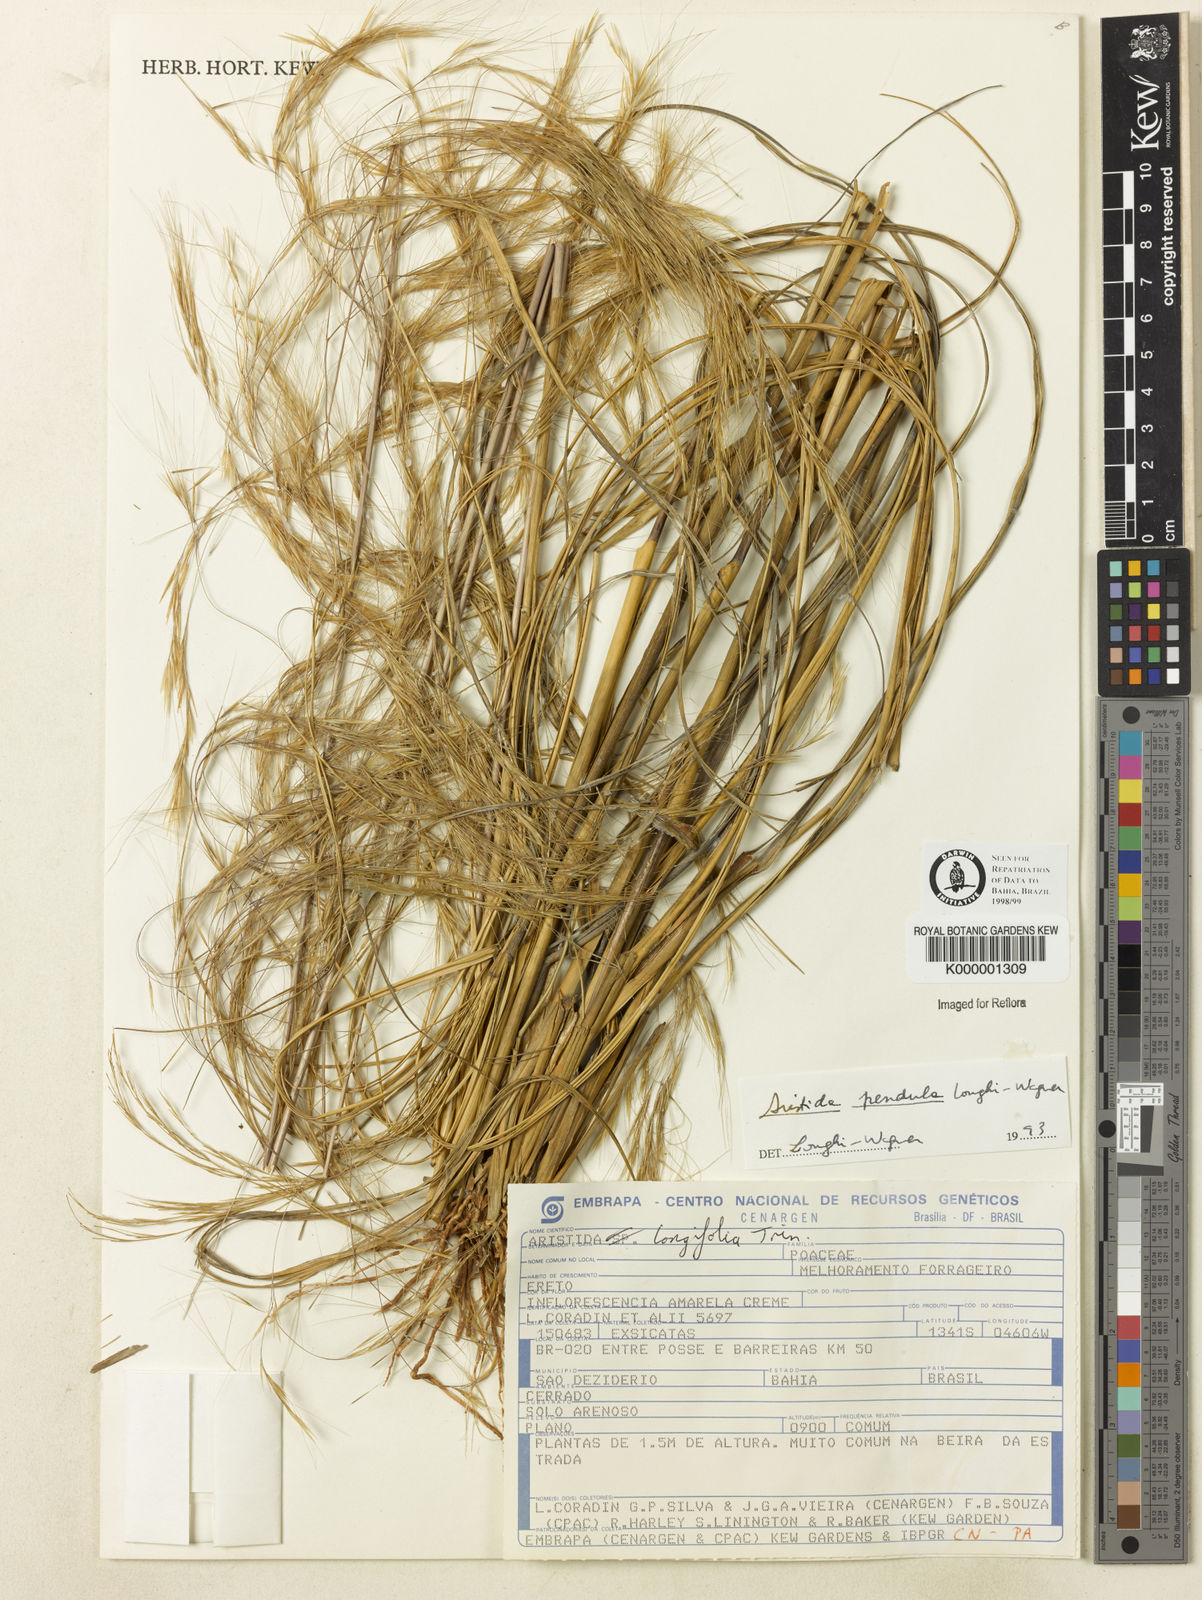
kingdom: Plantae
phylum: Tracheophyta
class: Liliopsida
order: Poales
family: Poaceae
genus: Aristida
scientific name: Aristida pendula
